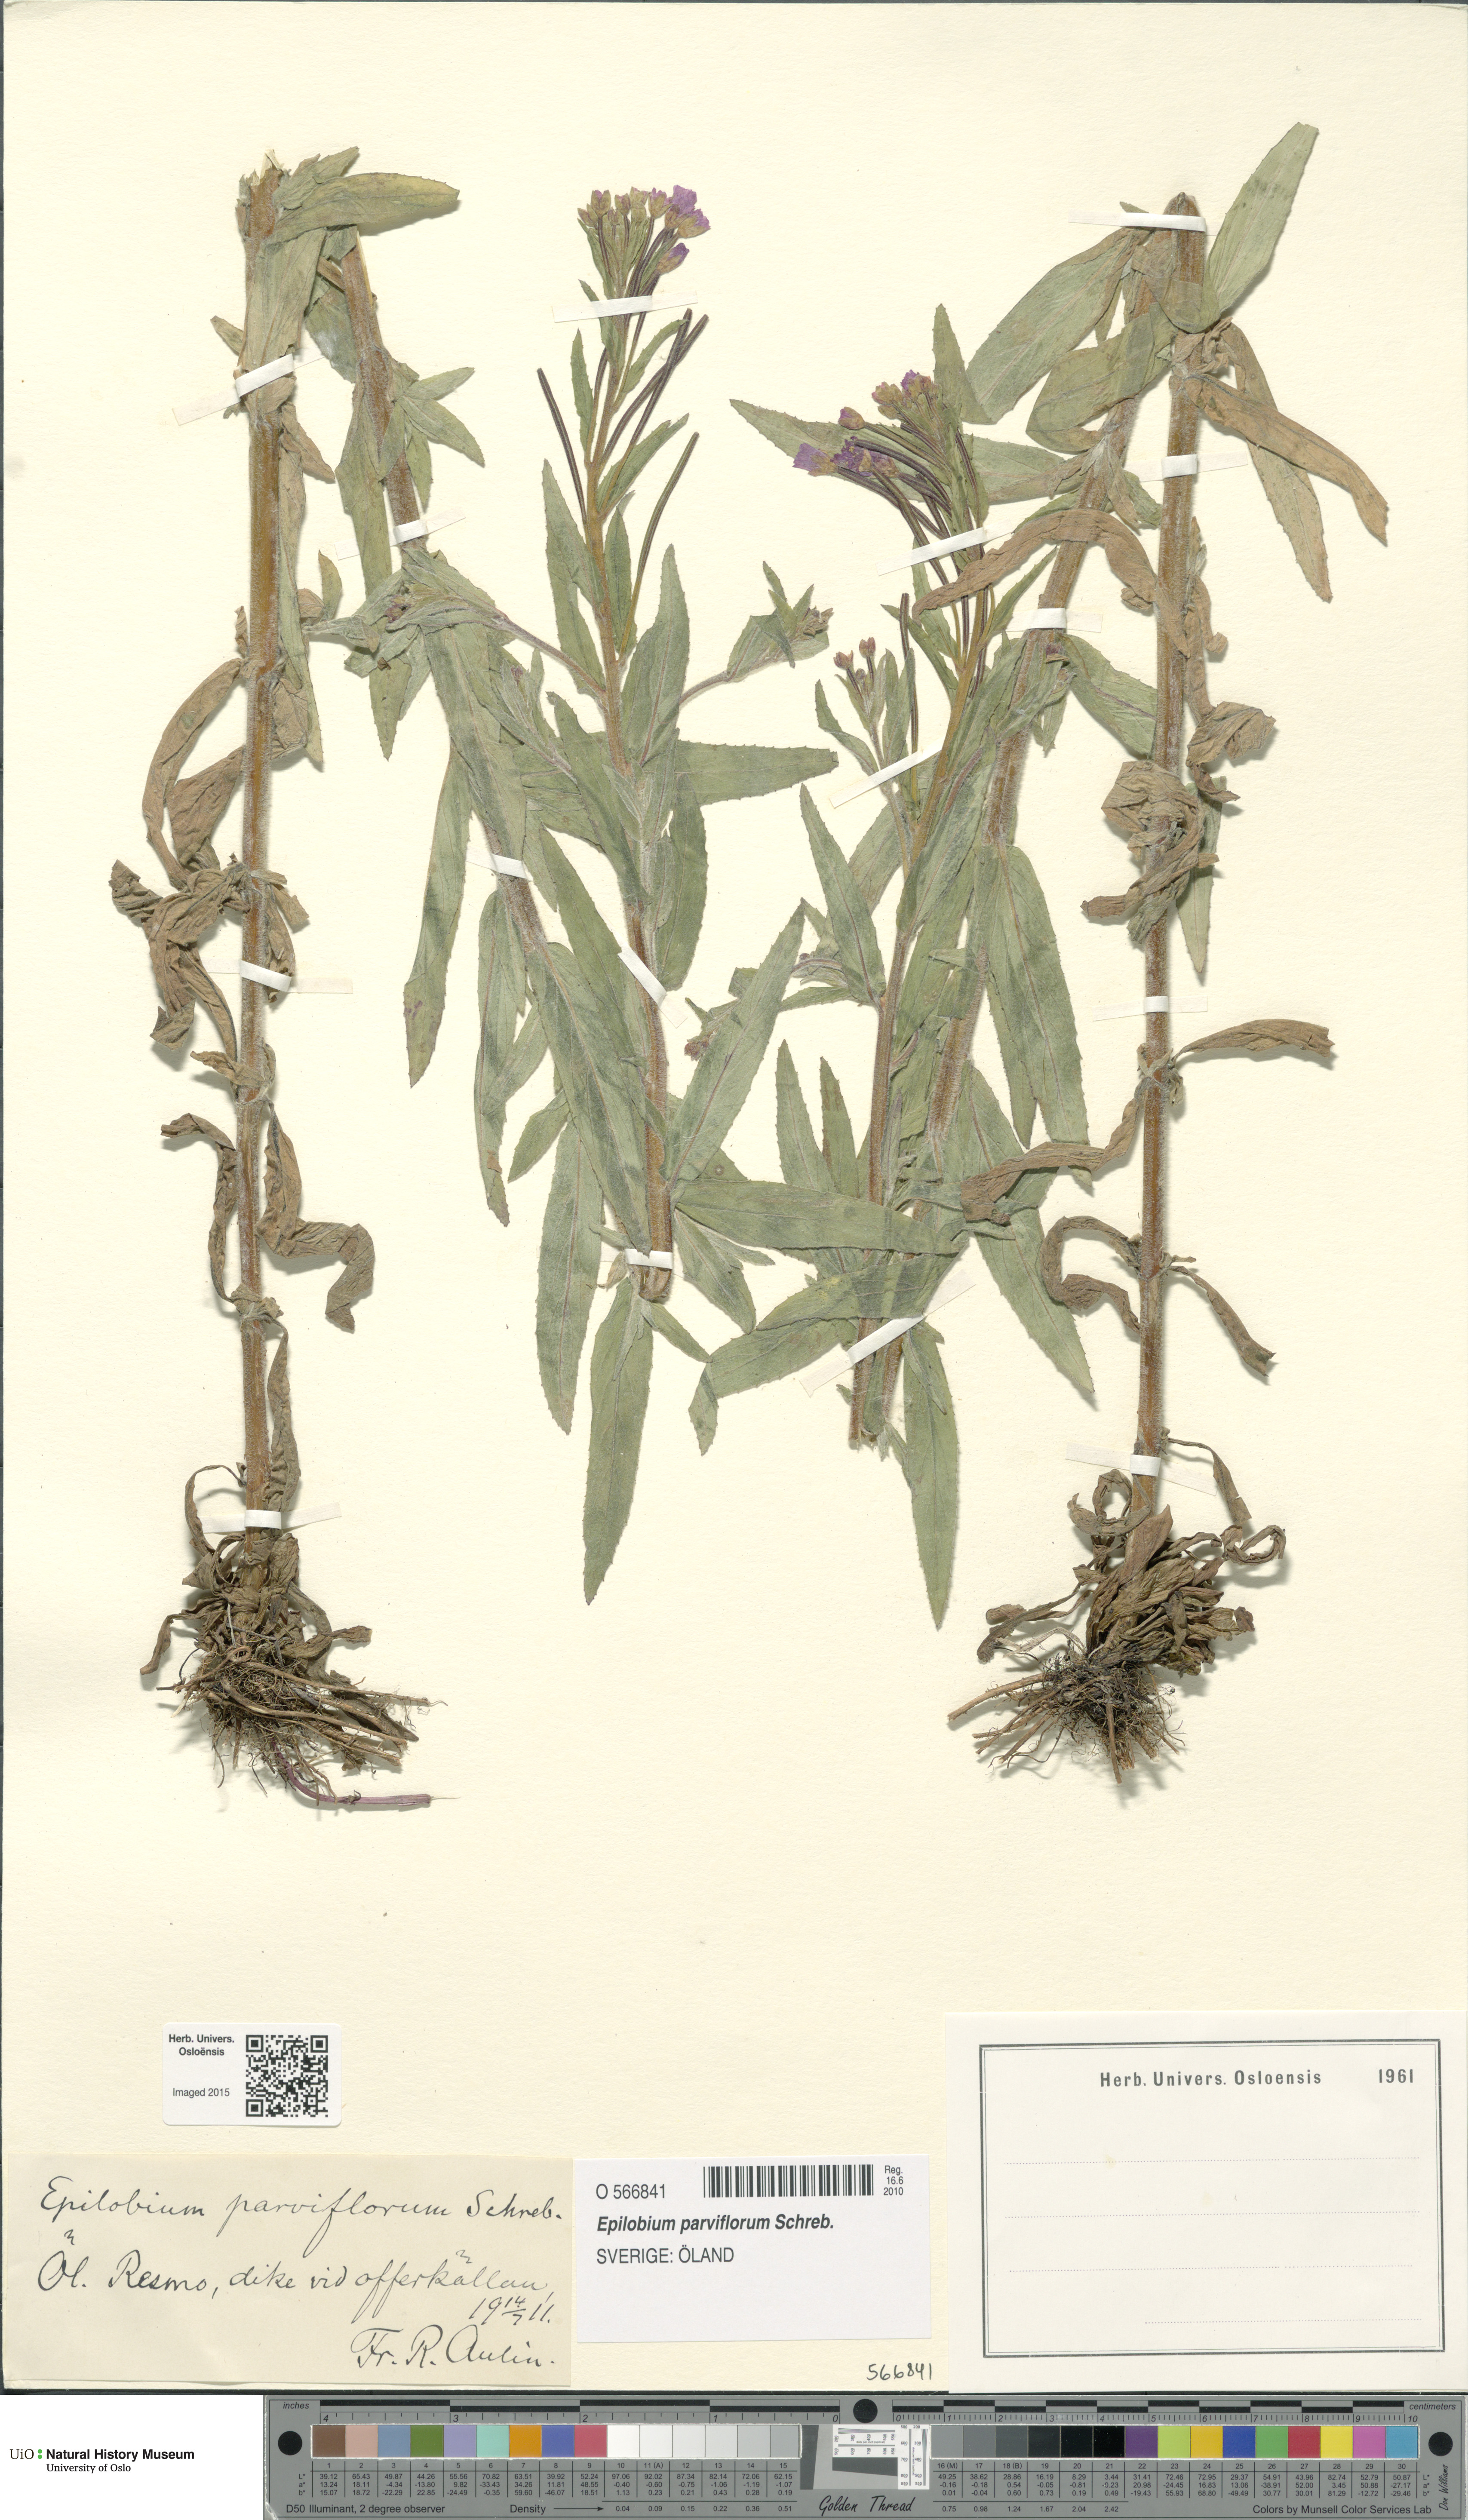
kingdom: Plantae
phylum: Tracheophyta
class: Magnoliopsida
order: Myrtales
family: Onagraceae
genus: Epilobium
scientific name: Epilobium parviflorum
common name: Hoary willowherb
